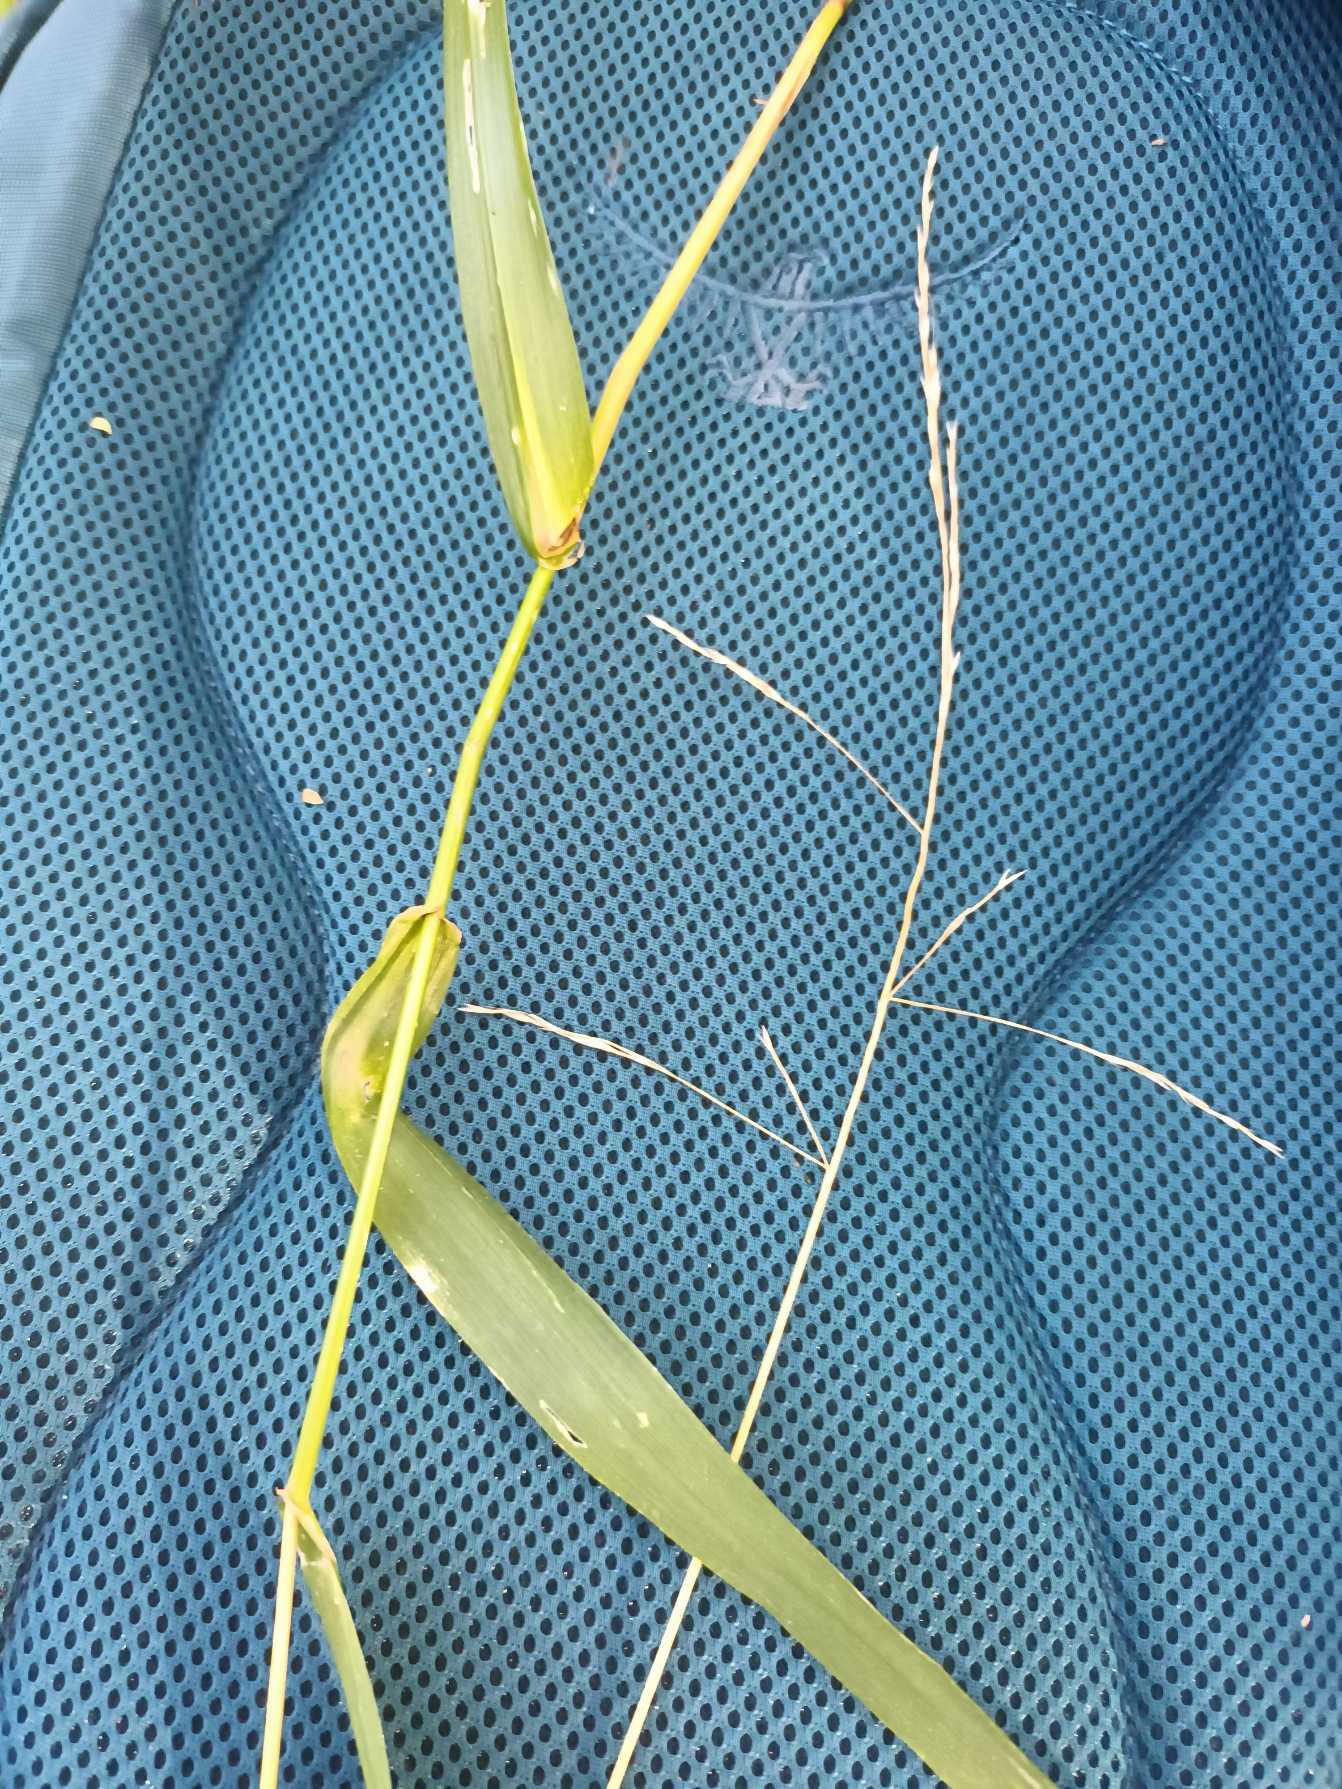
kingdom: Plantae
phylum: Tracheophyta
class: Liliopsida
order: Poales
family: Poaceae
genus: Lolium
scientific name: Lolium giganteum
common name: Kæmpe-svingel
